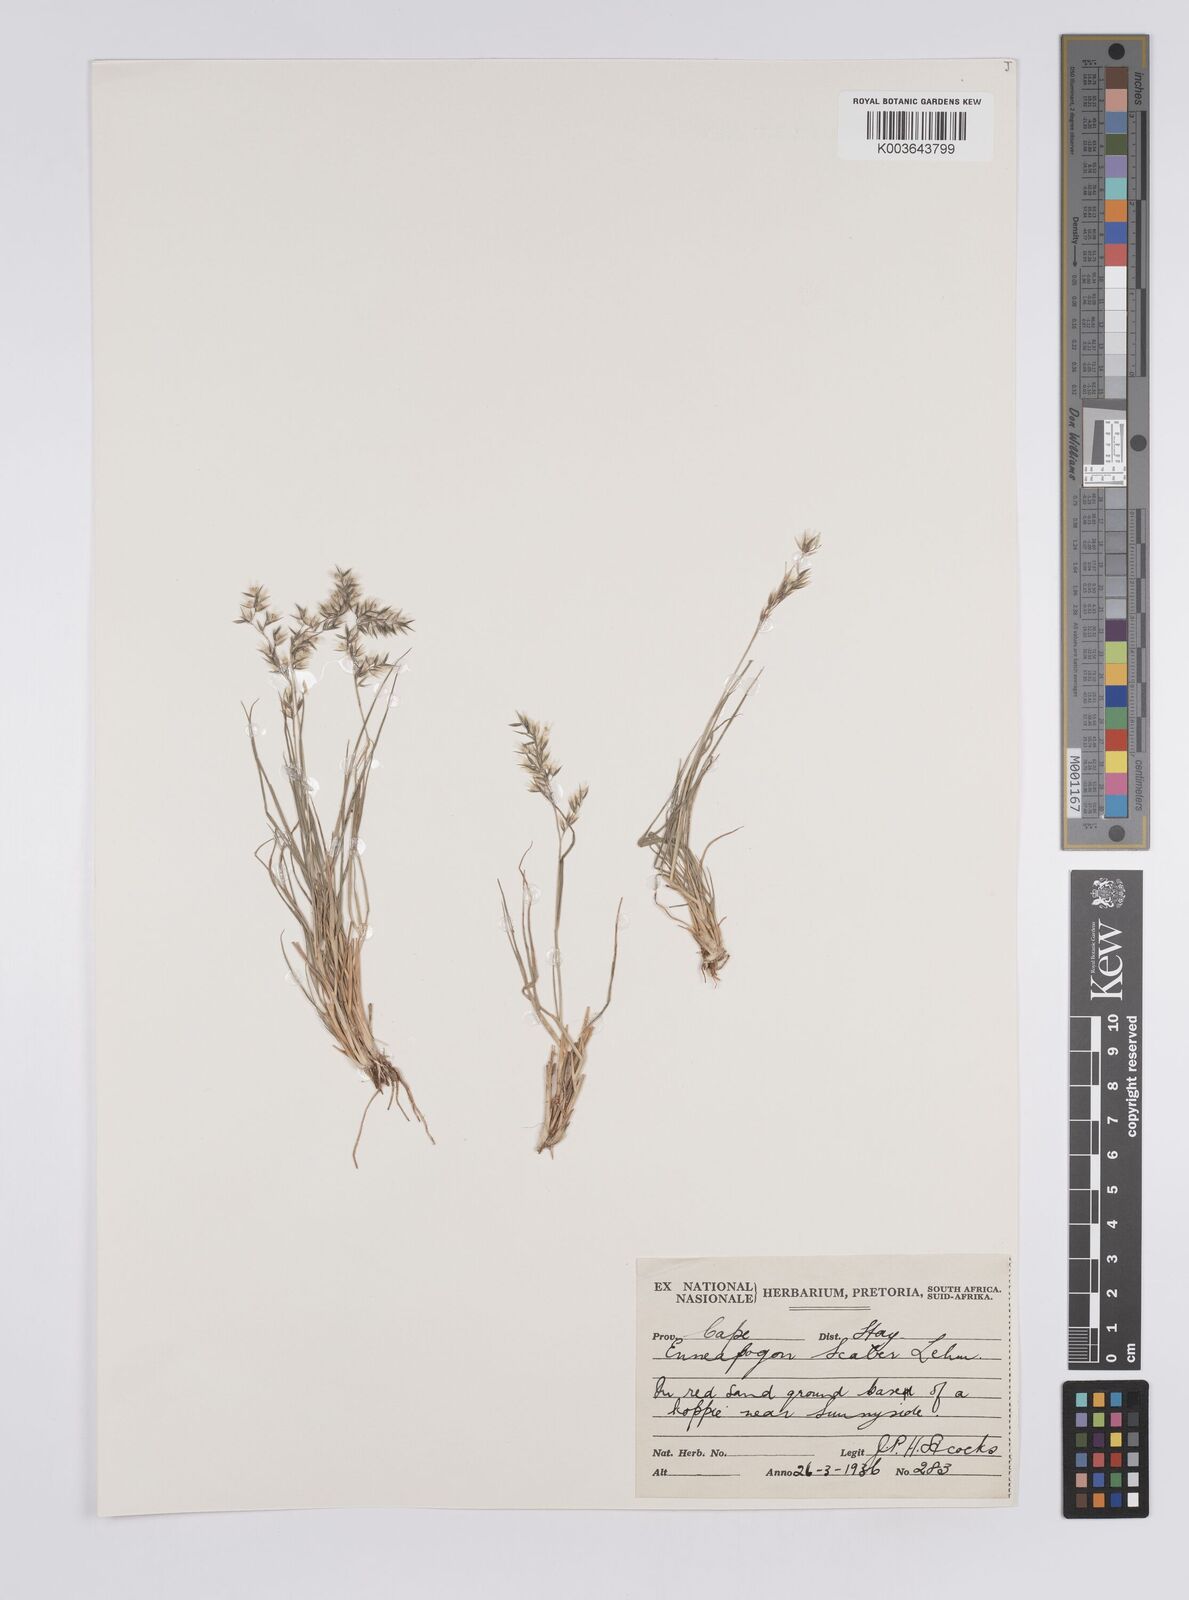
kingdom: Plantae
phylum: Tracheophyta
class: Liliopsida
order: Poales
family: Poaceae
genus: Enneapogon
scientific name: Enneapogon scaber
